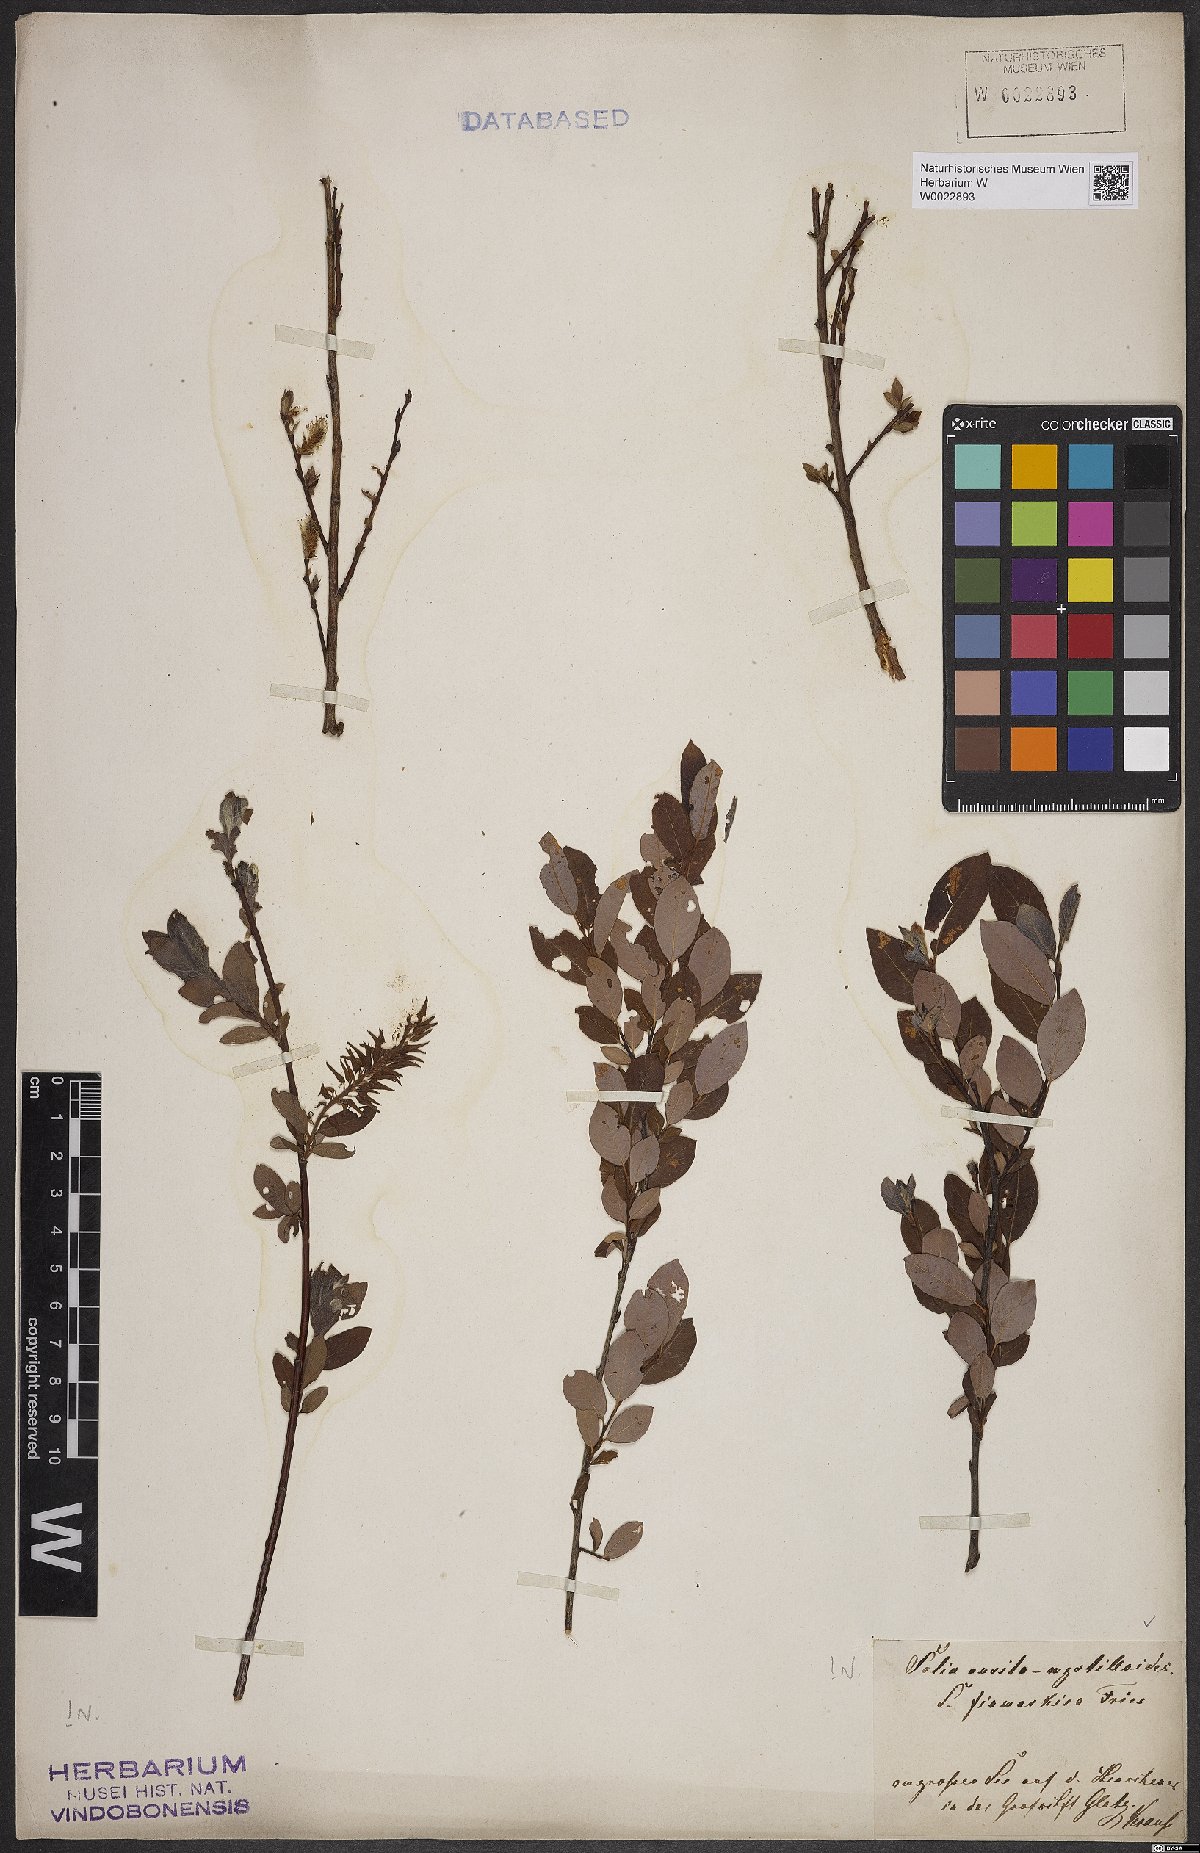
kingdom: Plantae
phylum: Tracheophyta
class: Magnoliopsida
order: Malpighiales
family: Salicaceae
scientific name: Salicaceae
